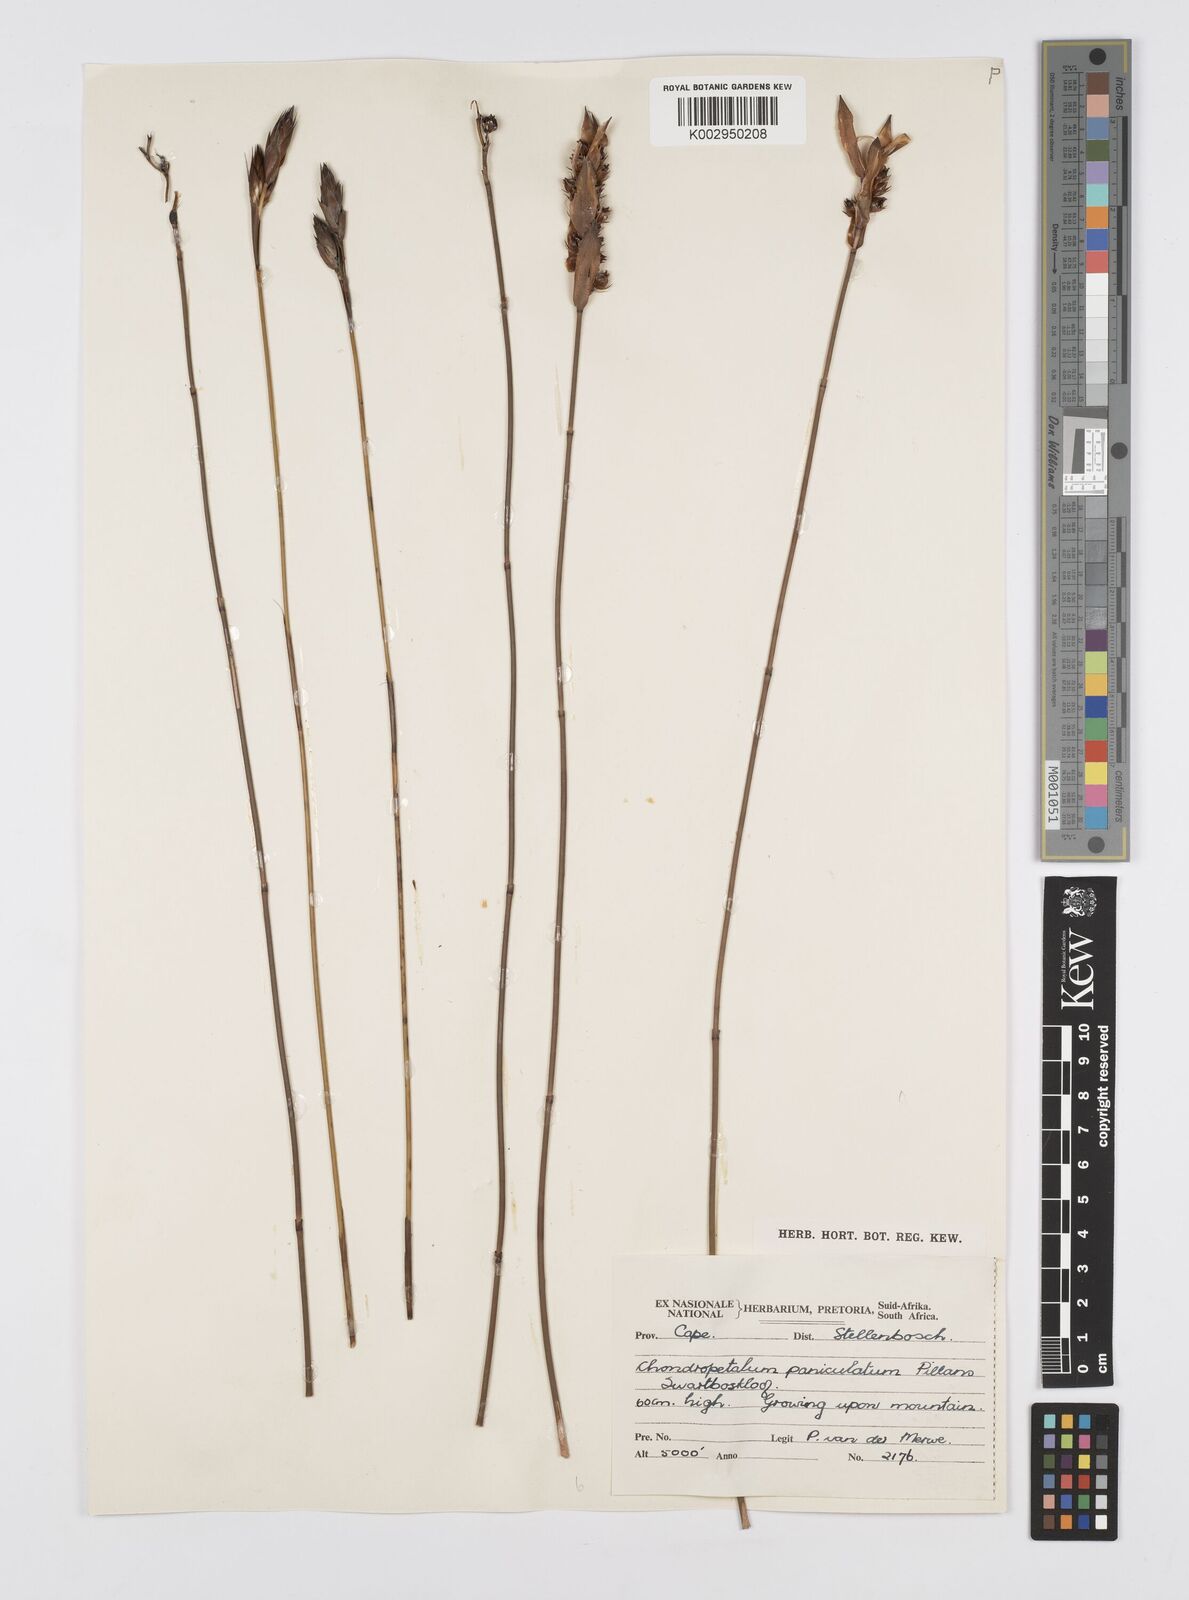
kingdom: Plantae
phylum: Tracheophyta
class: Liliopsida
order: Poales
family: Restionaceae
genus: Askidiosperma
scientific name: Askidiosperma paniculatum
